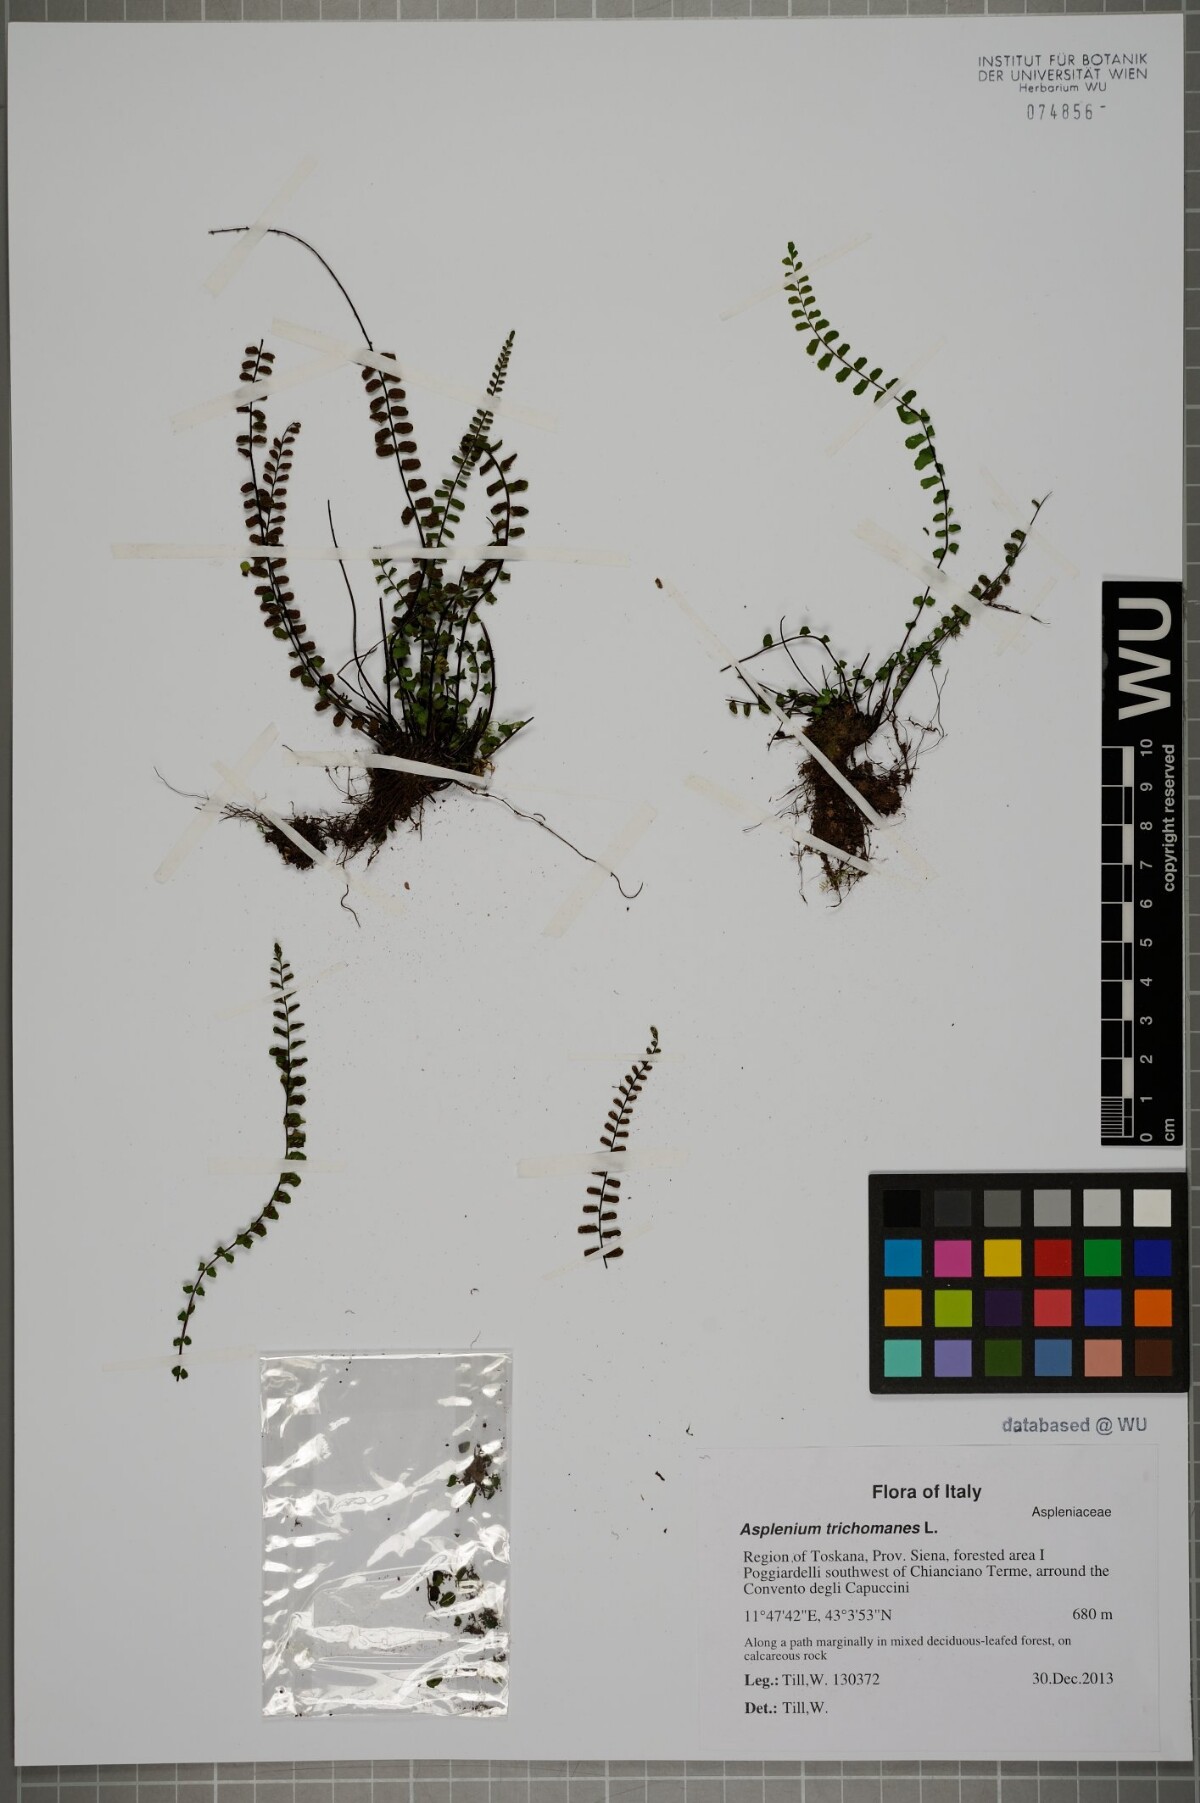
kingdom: Plantae
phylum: Tracheophyta
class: Polypodiopsida
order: Polypodiales
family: Aspleniaceae
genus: Asplenium
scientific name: Asplenium trichomanes
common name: Maidenhair spleenwort
